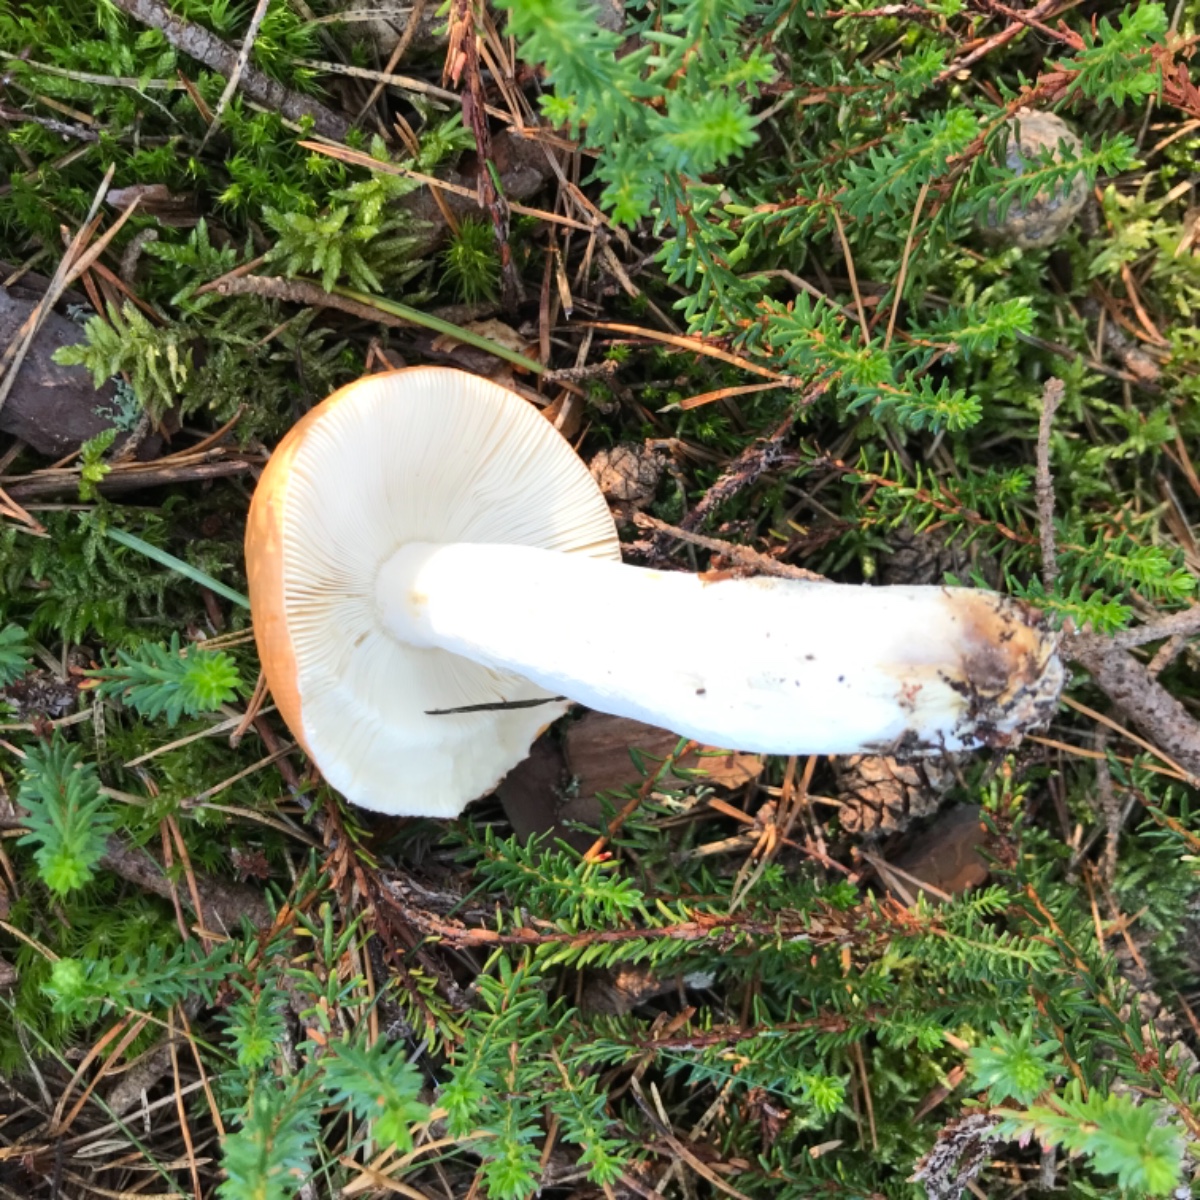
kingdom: Fungi
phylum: Basidiomycota
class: Agaricomycetes
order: Russulales
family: Russulaceae
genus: Russula
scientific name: Russula paludosa
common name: prægtig skørhat
